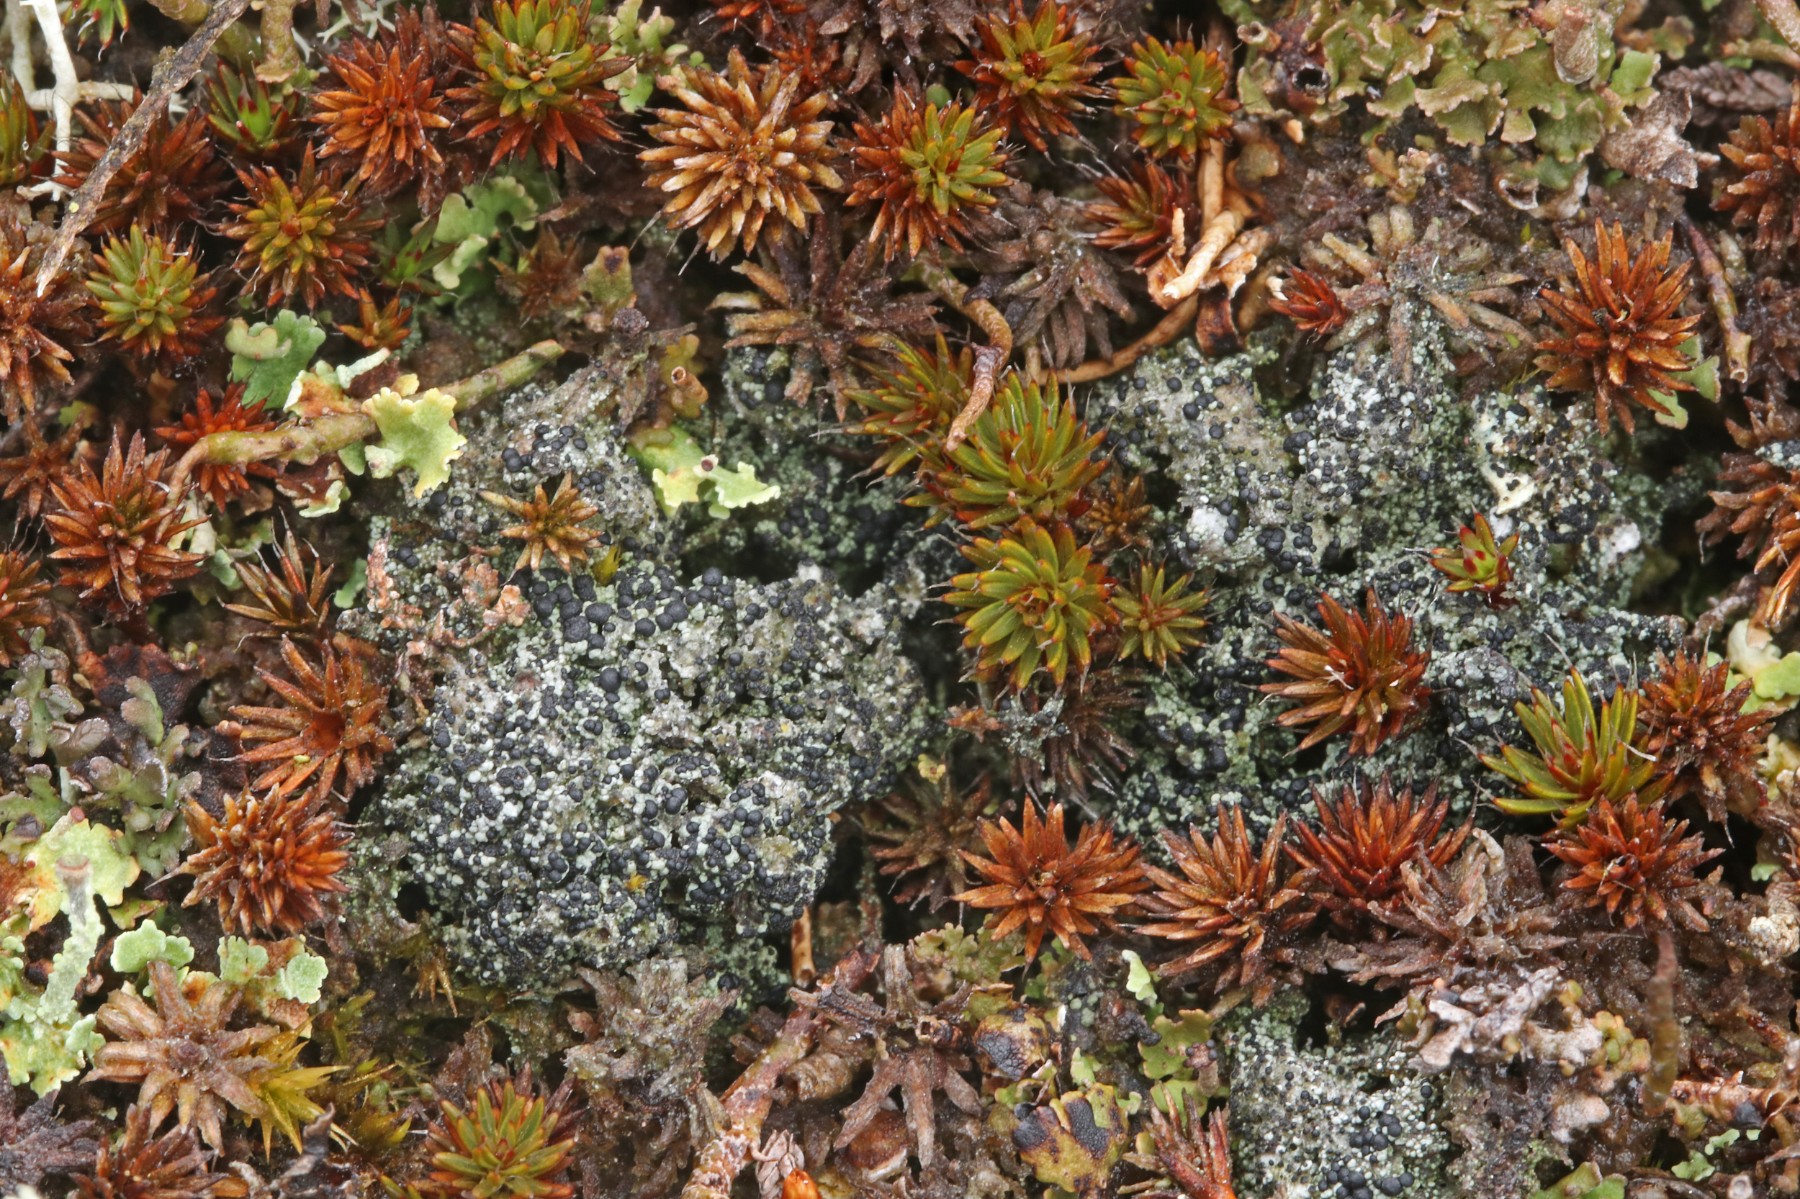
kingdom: Fungi
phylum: Ascomycota
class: Lecanoromycetes
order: Lecanorales
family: Byssolomataceae
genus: Micarea
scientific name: Micarea lignaria
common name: tørve-knaplav
